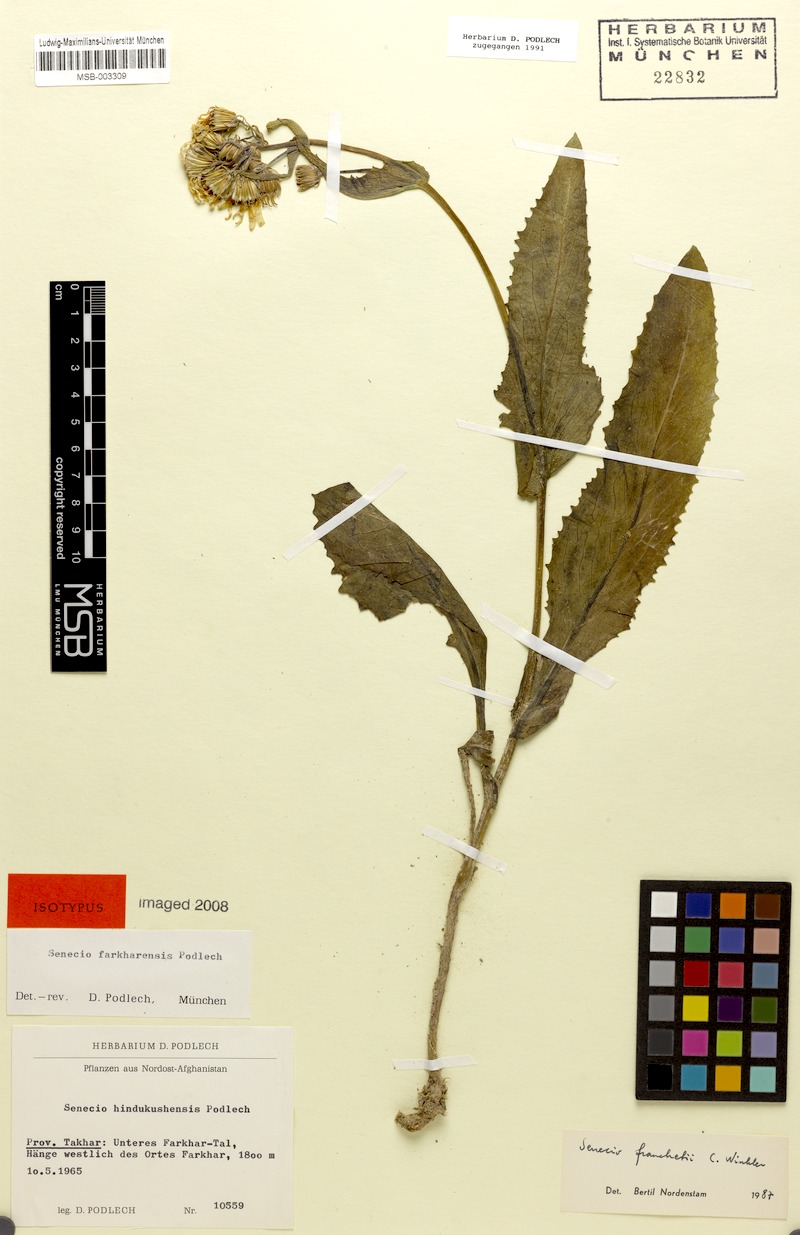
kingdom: Plantae
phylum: Tracheophyta
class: Magnoliopsida
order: Asterales
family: Asteraceae
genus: Senecio
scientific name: Senecio franchetii
